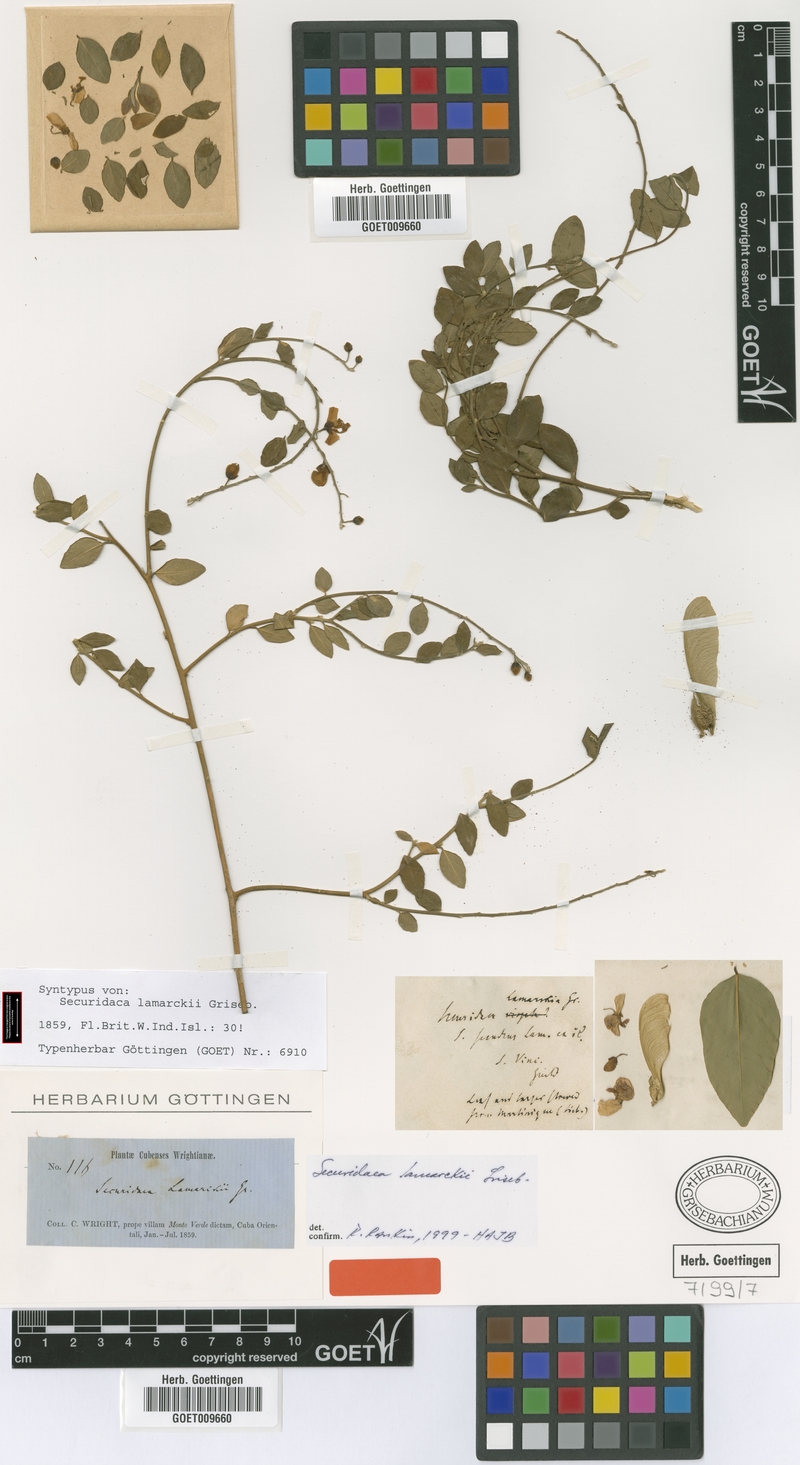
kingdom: Plantae
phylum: Tracheophyta
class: Magnoliopsida
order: Fabales
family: Polygalaceae
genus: Securidaca
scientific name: Securidaca diversifolia
